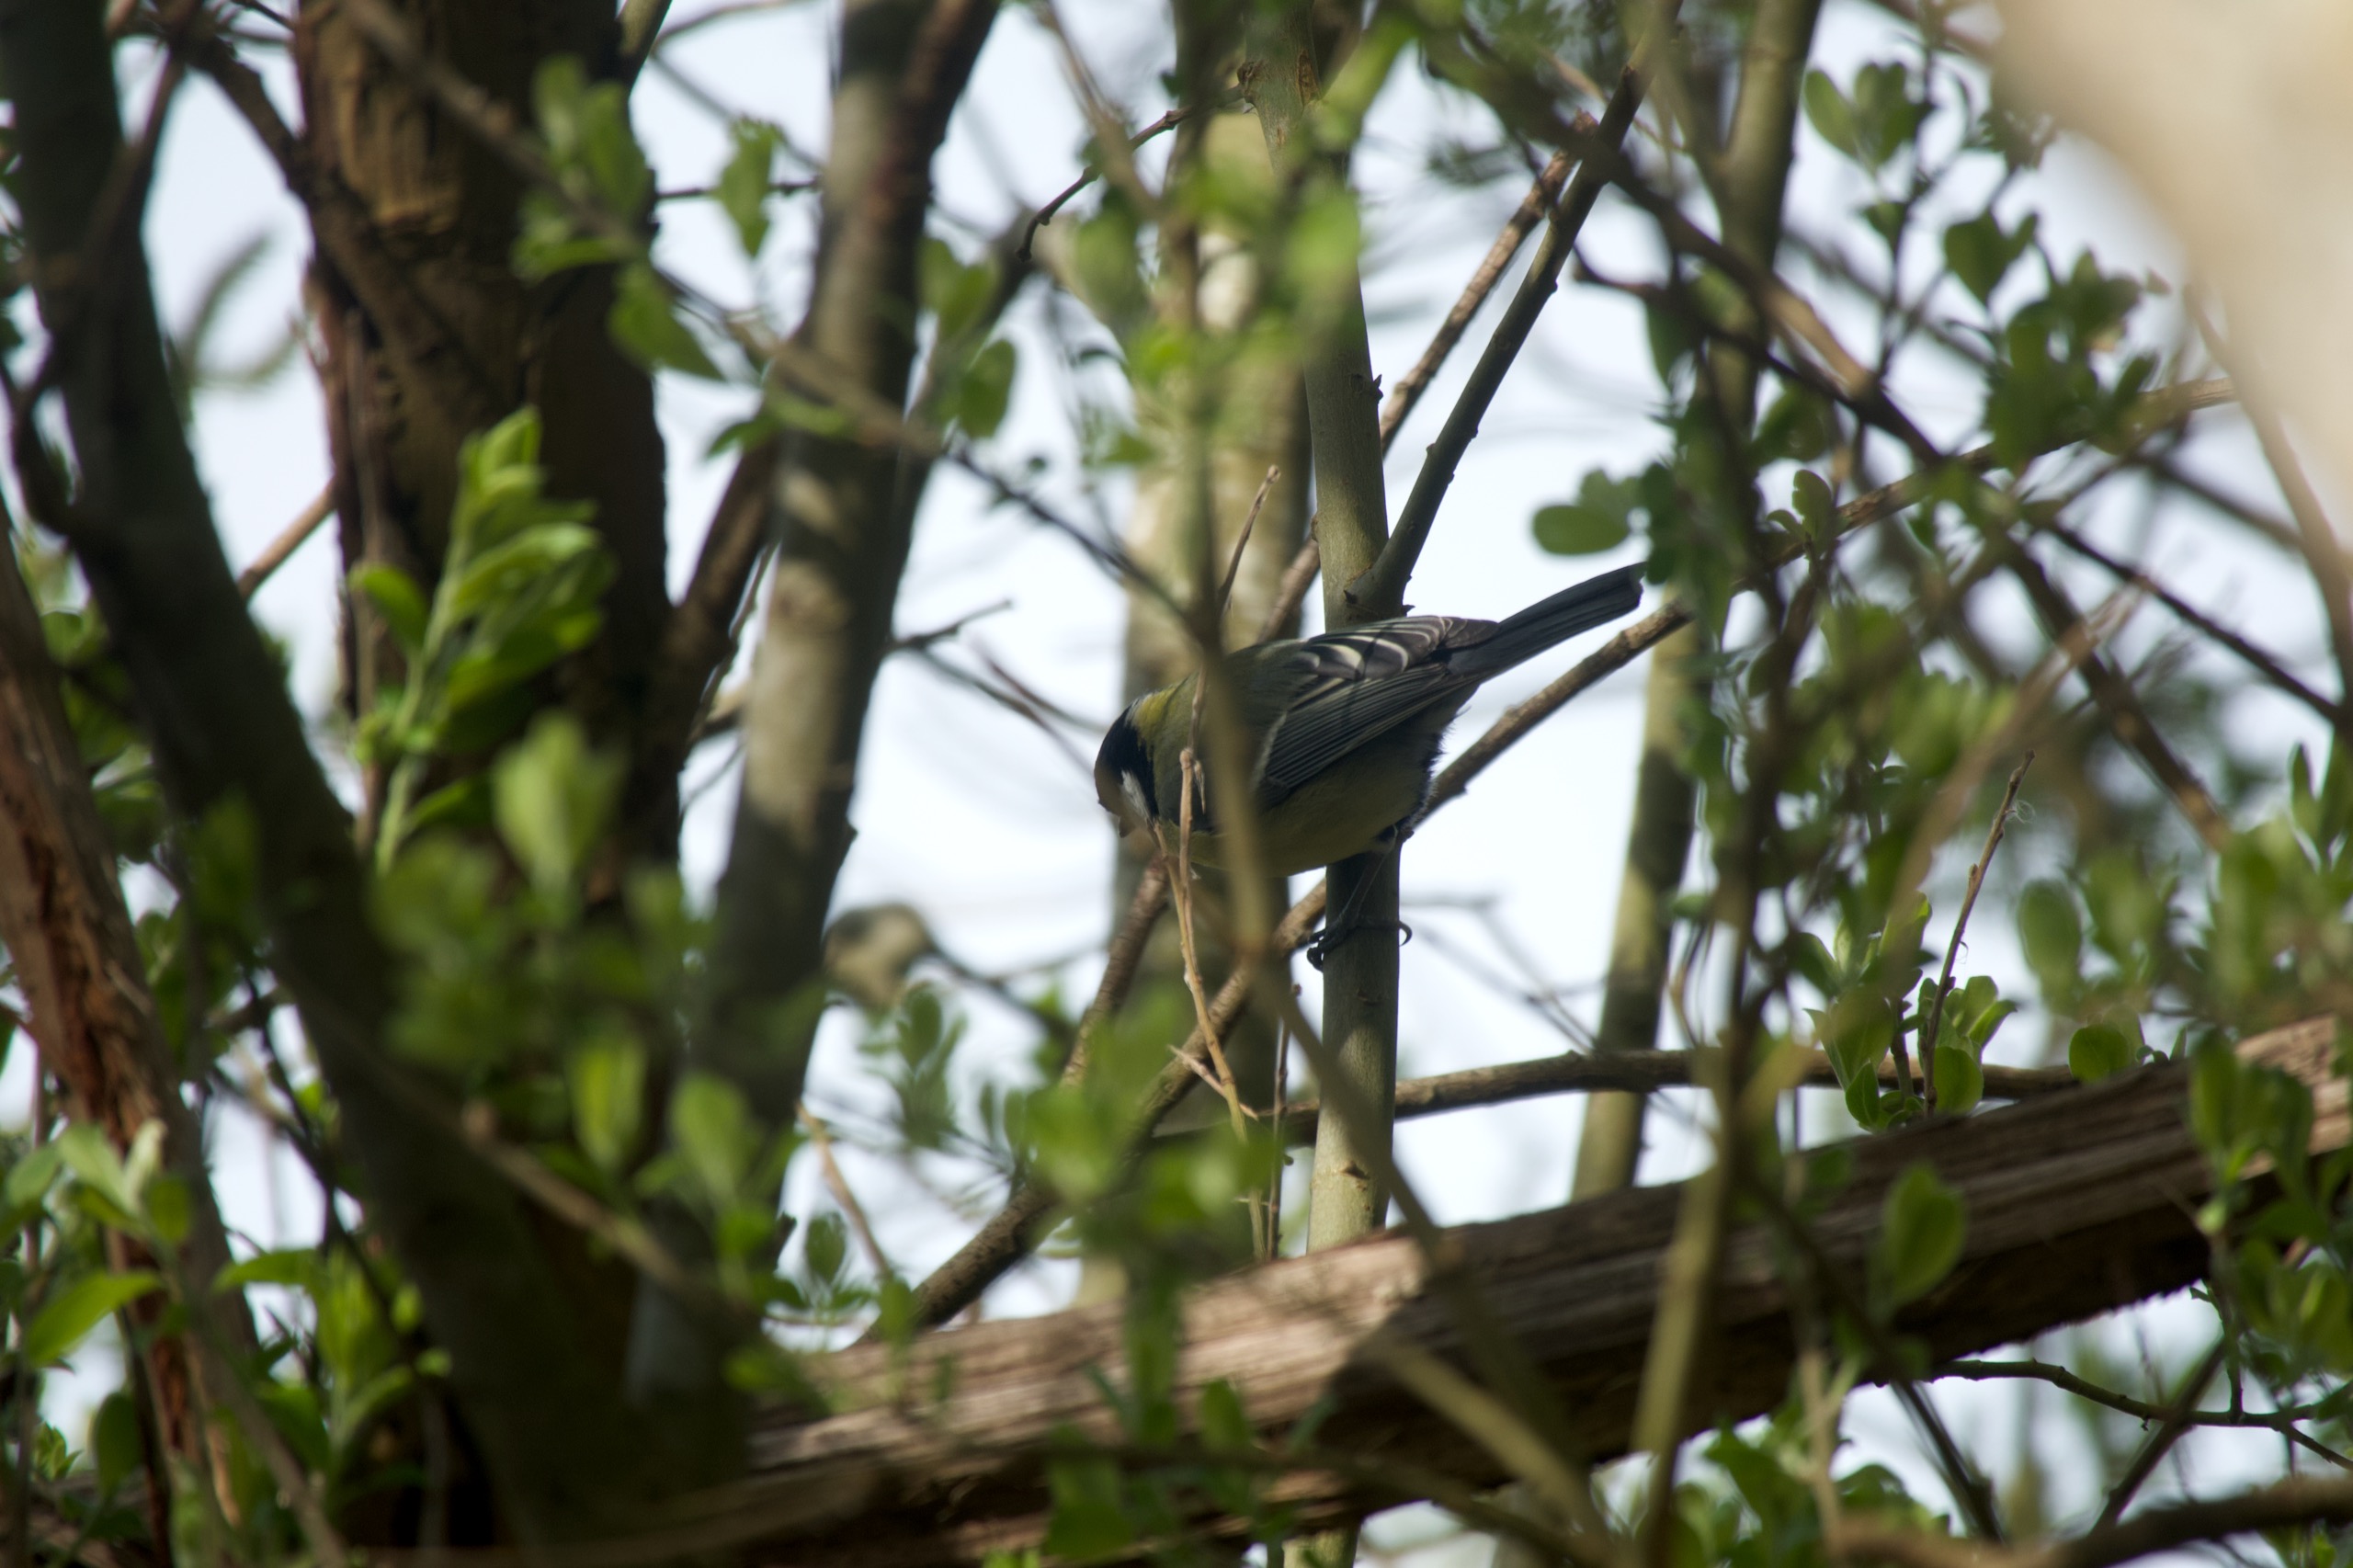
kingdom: Animalia
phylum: Chordata
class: Aves
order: Passeriformes
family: Paridae
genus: Parus
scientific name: Parus major
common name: Musvit
